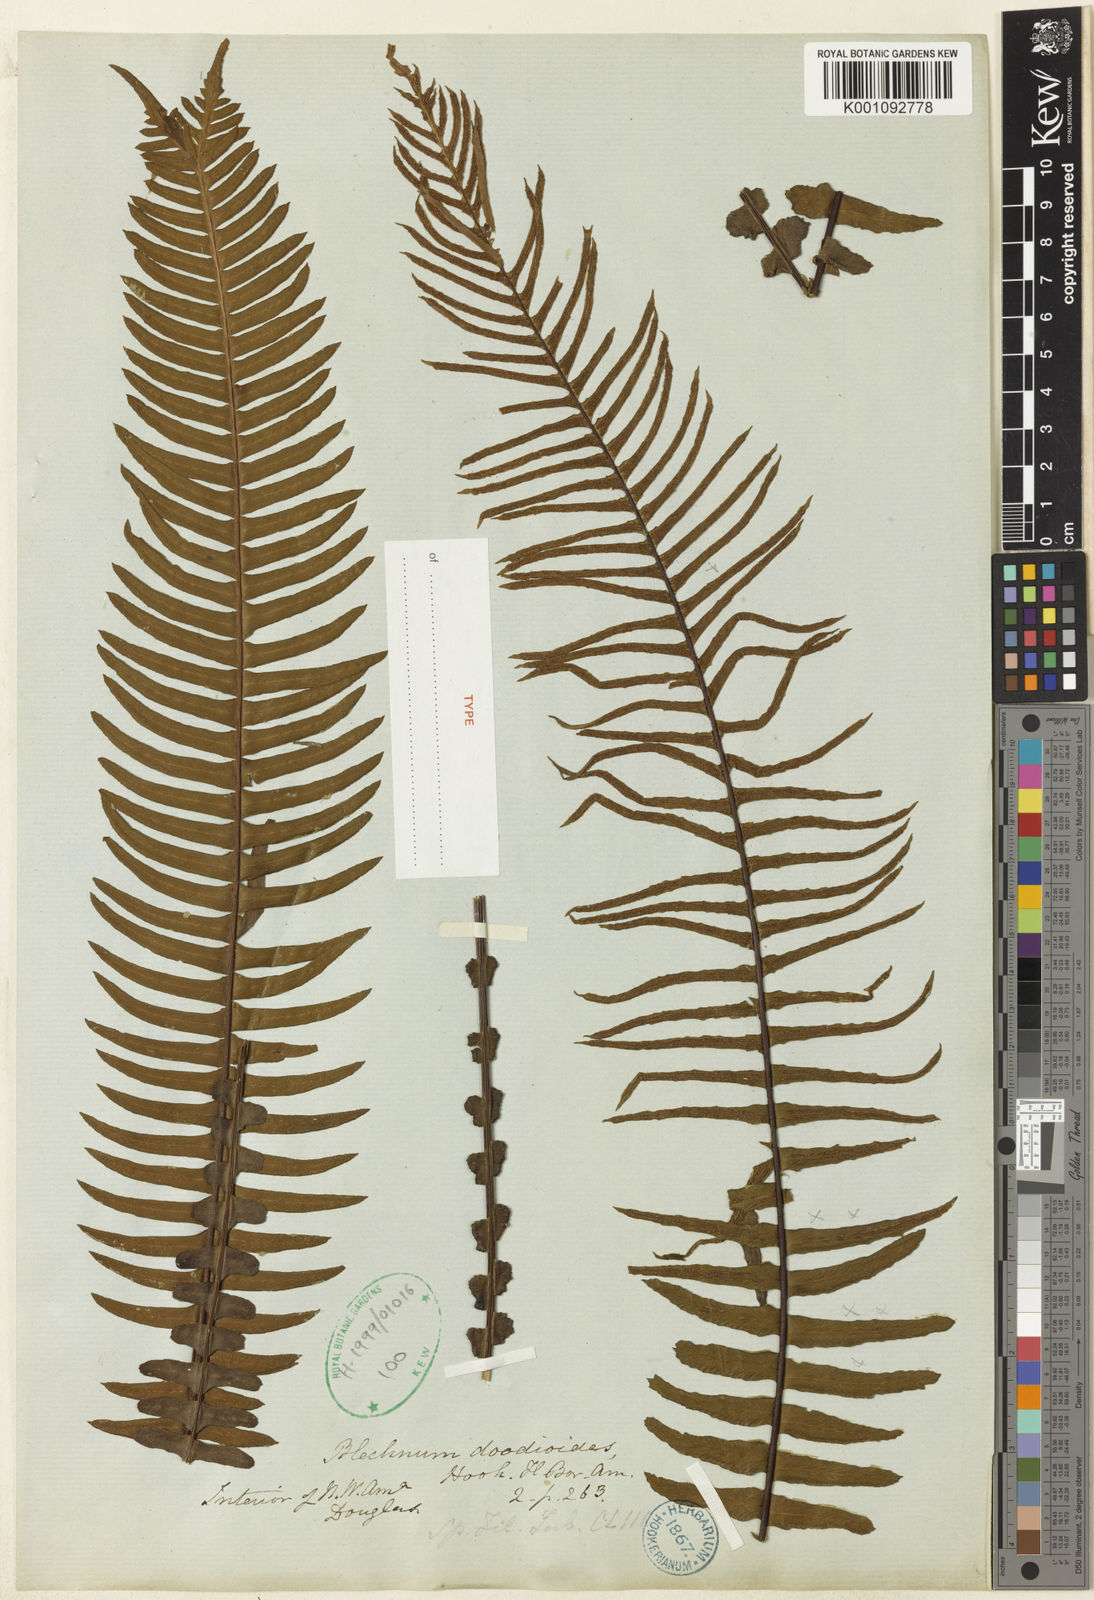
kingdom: Plantae
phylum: Tracheophyta
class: Polypodiopsida
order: Polypodiales
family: Blechnaceae
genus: Struthiopteris
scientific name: Struthiopteris spicant
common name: Deer fern
